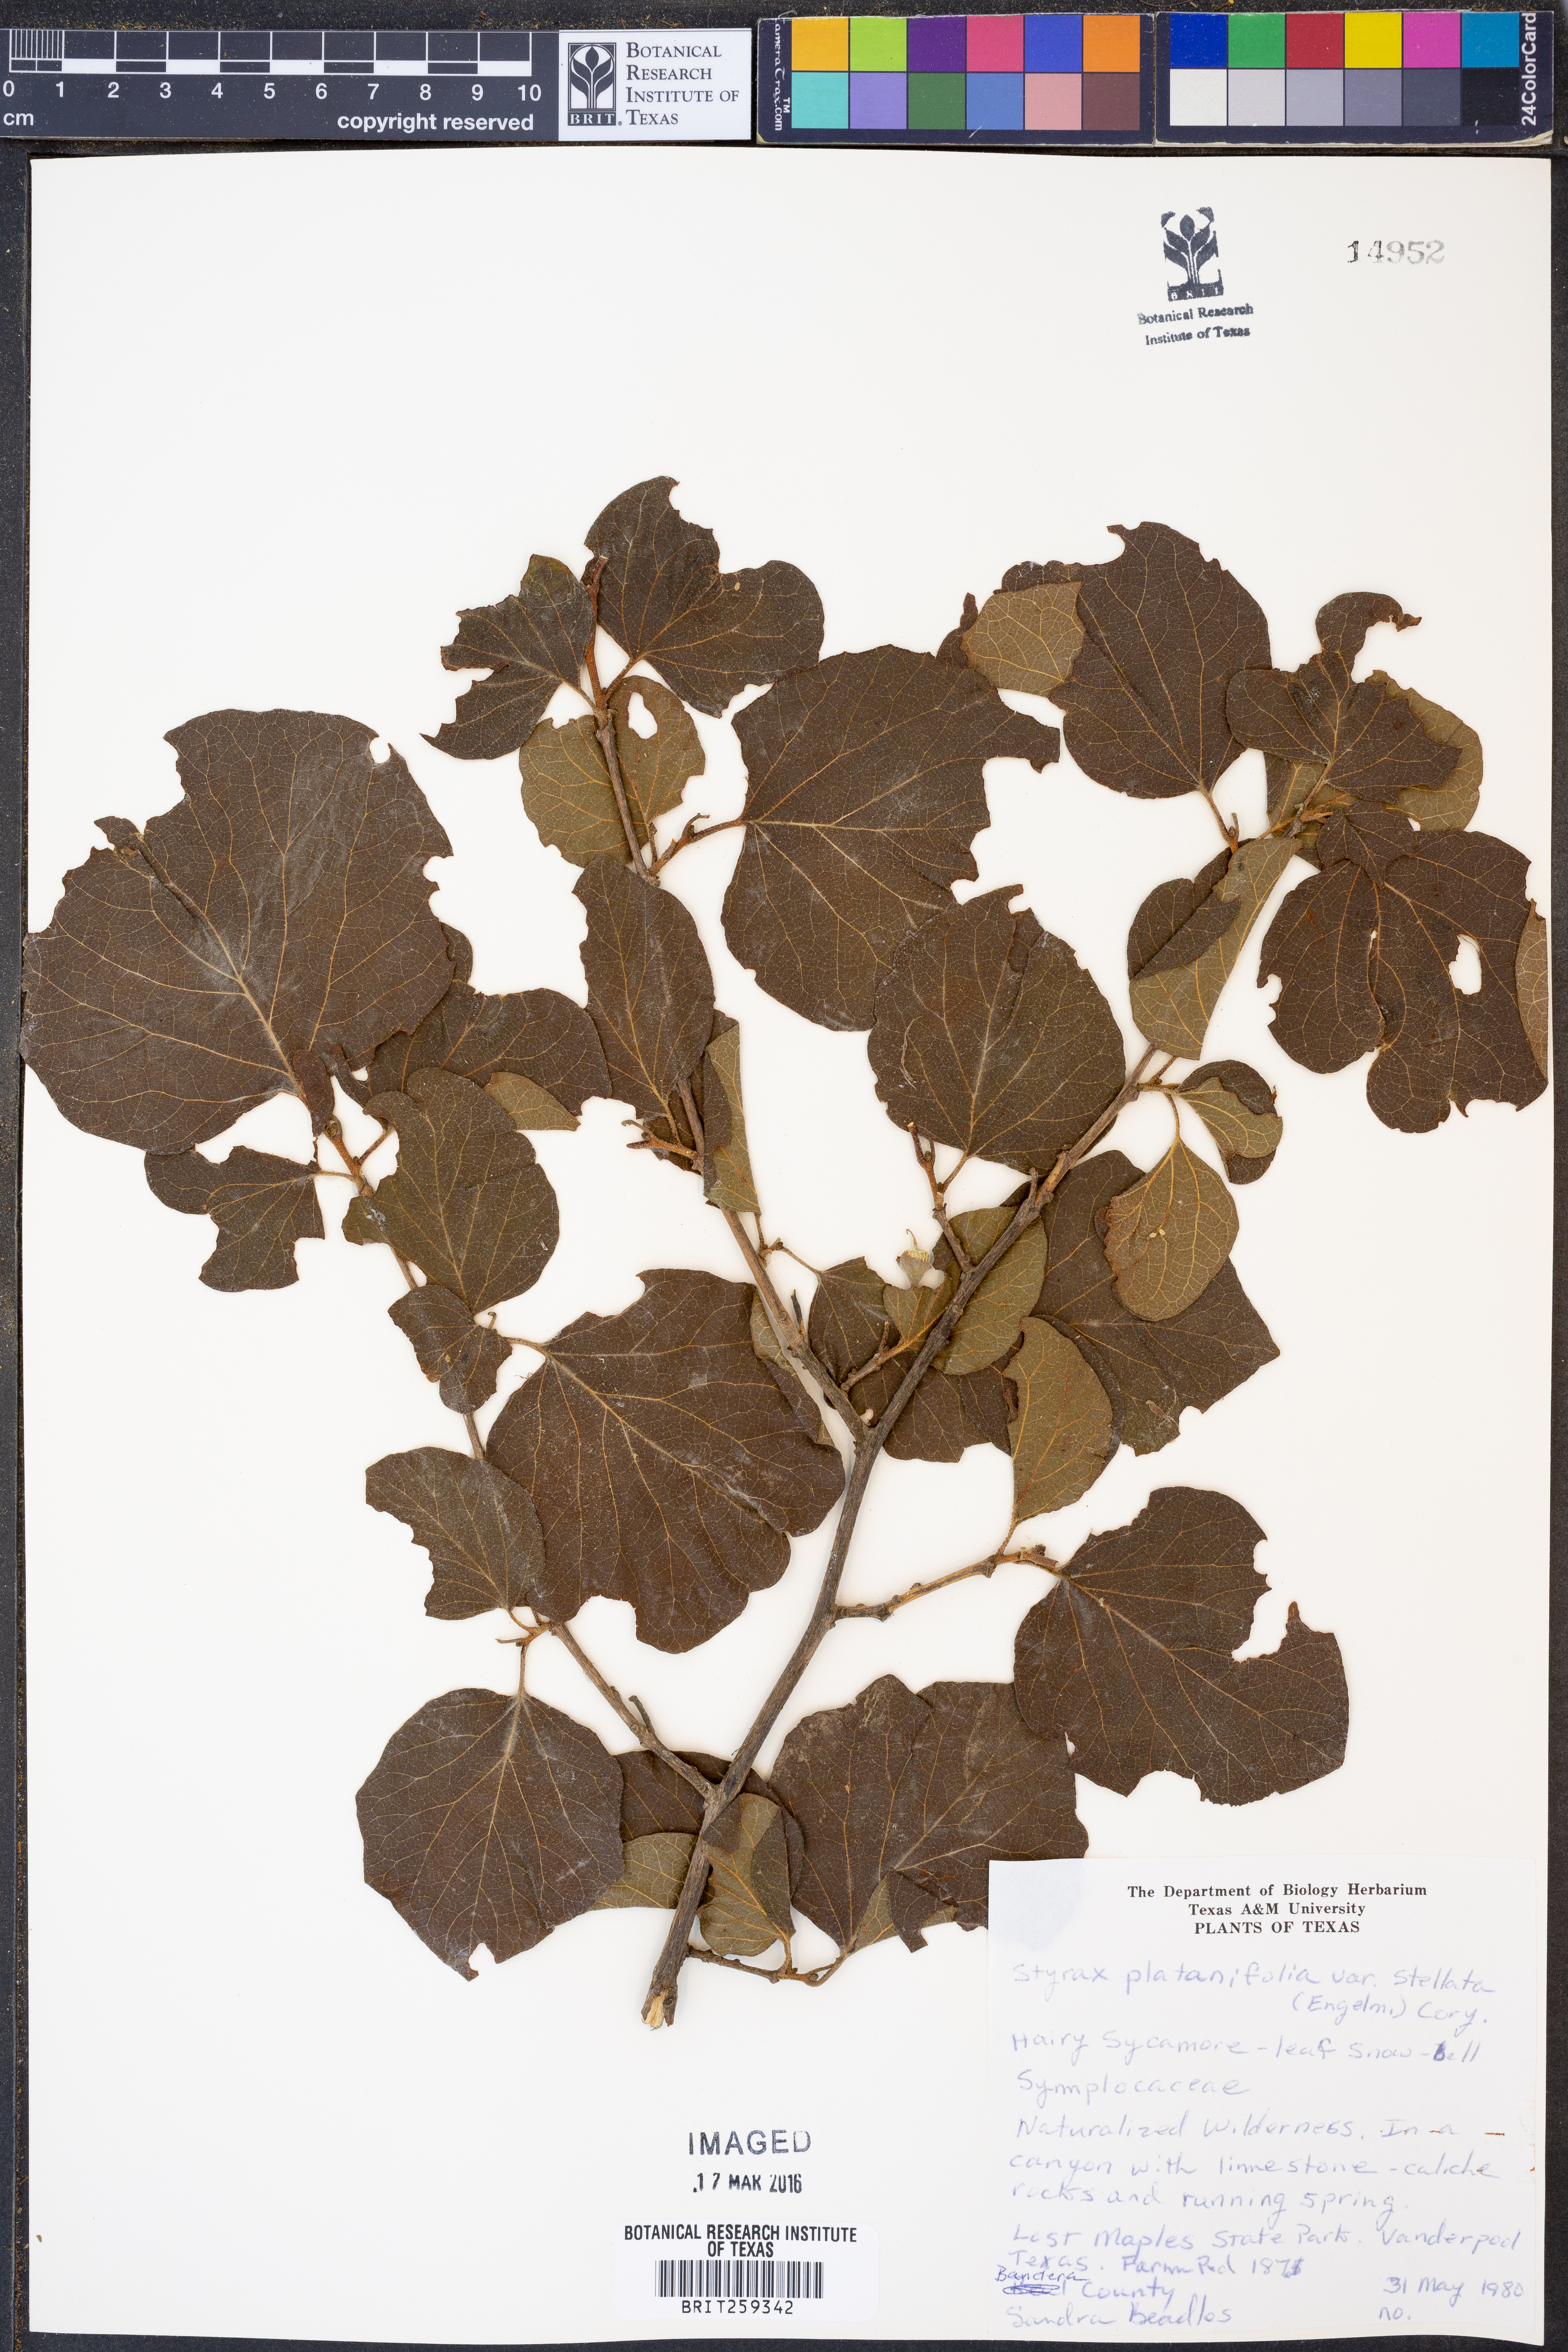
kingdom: Plantae
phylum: Tracheophyta
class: Magnoliopsida
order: Ericales
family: Styracaceae
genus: Styrax
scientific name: Styrax platanifolius
